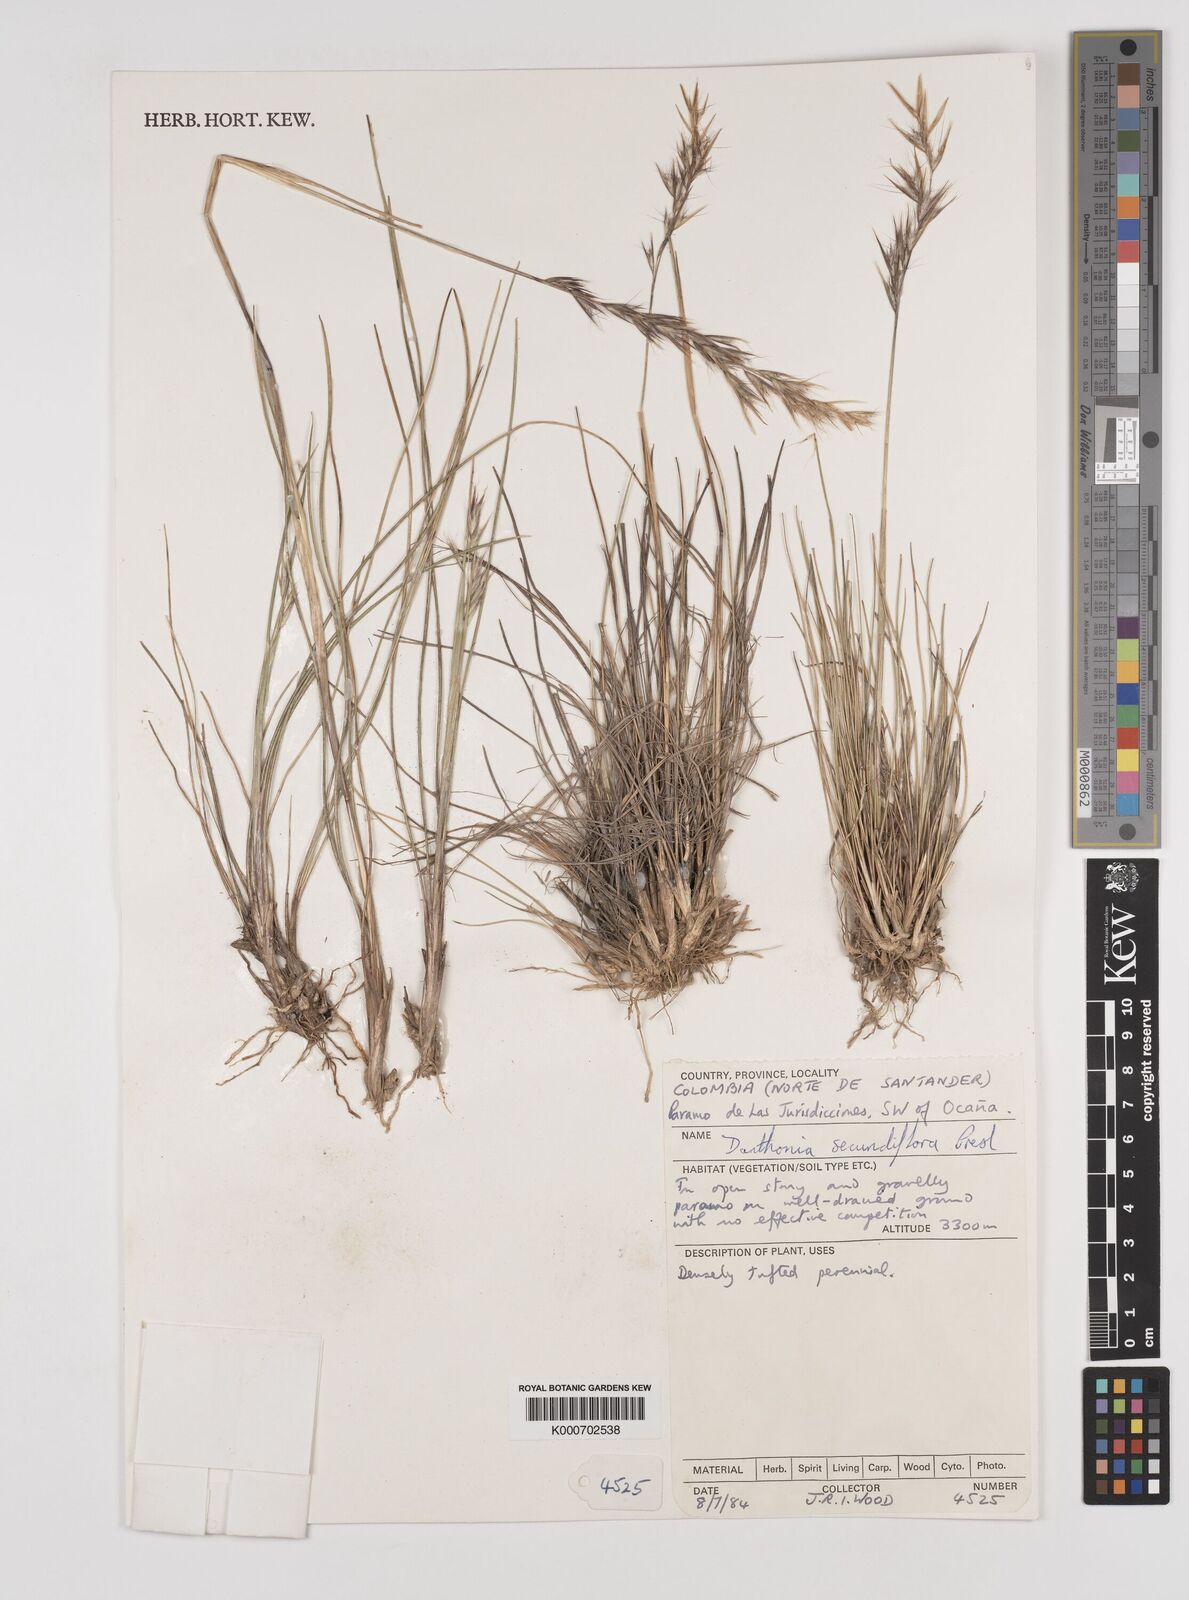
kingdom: Plantae
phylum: Tracheophyta
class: Liliopsida
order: Poales
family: Poaceae
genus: Danthonia
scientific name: Danthonia secundiflora
